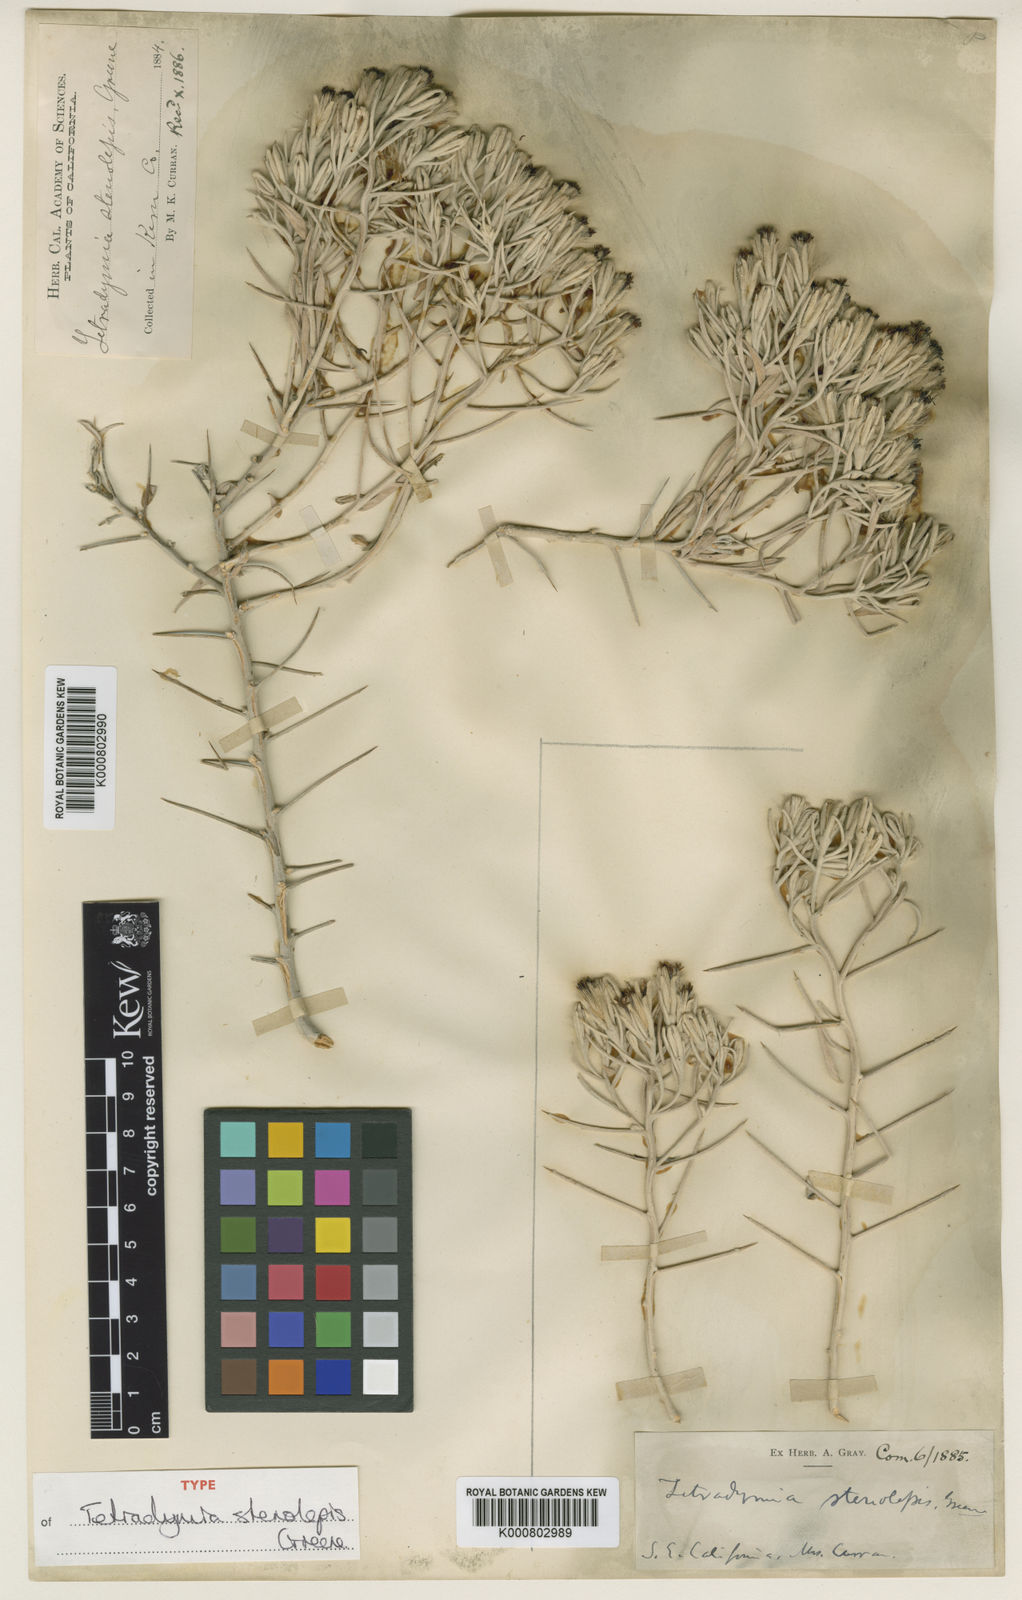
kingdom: Plantae
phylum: Tracheophyta
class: Magnoliopsida
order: Asterales
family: Asteraceae
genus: Tetradymia
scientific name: Tetradymia stenolepis
